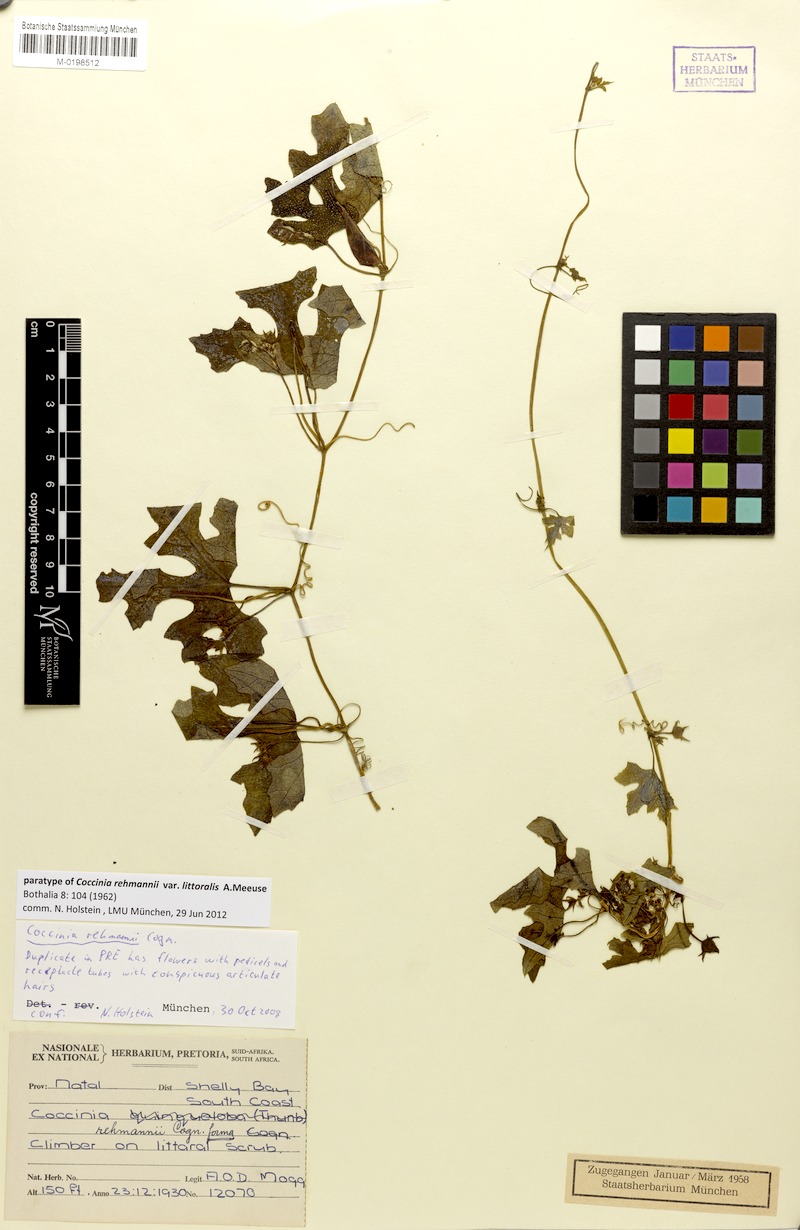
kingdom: Plantae
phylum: Tracheophyta
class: Magnoliopsida
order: Cucurbitales
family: Cucurbitaceae
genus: Coccinia
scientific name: Coccinia rehmannii
